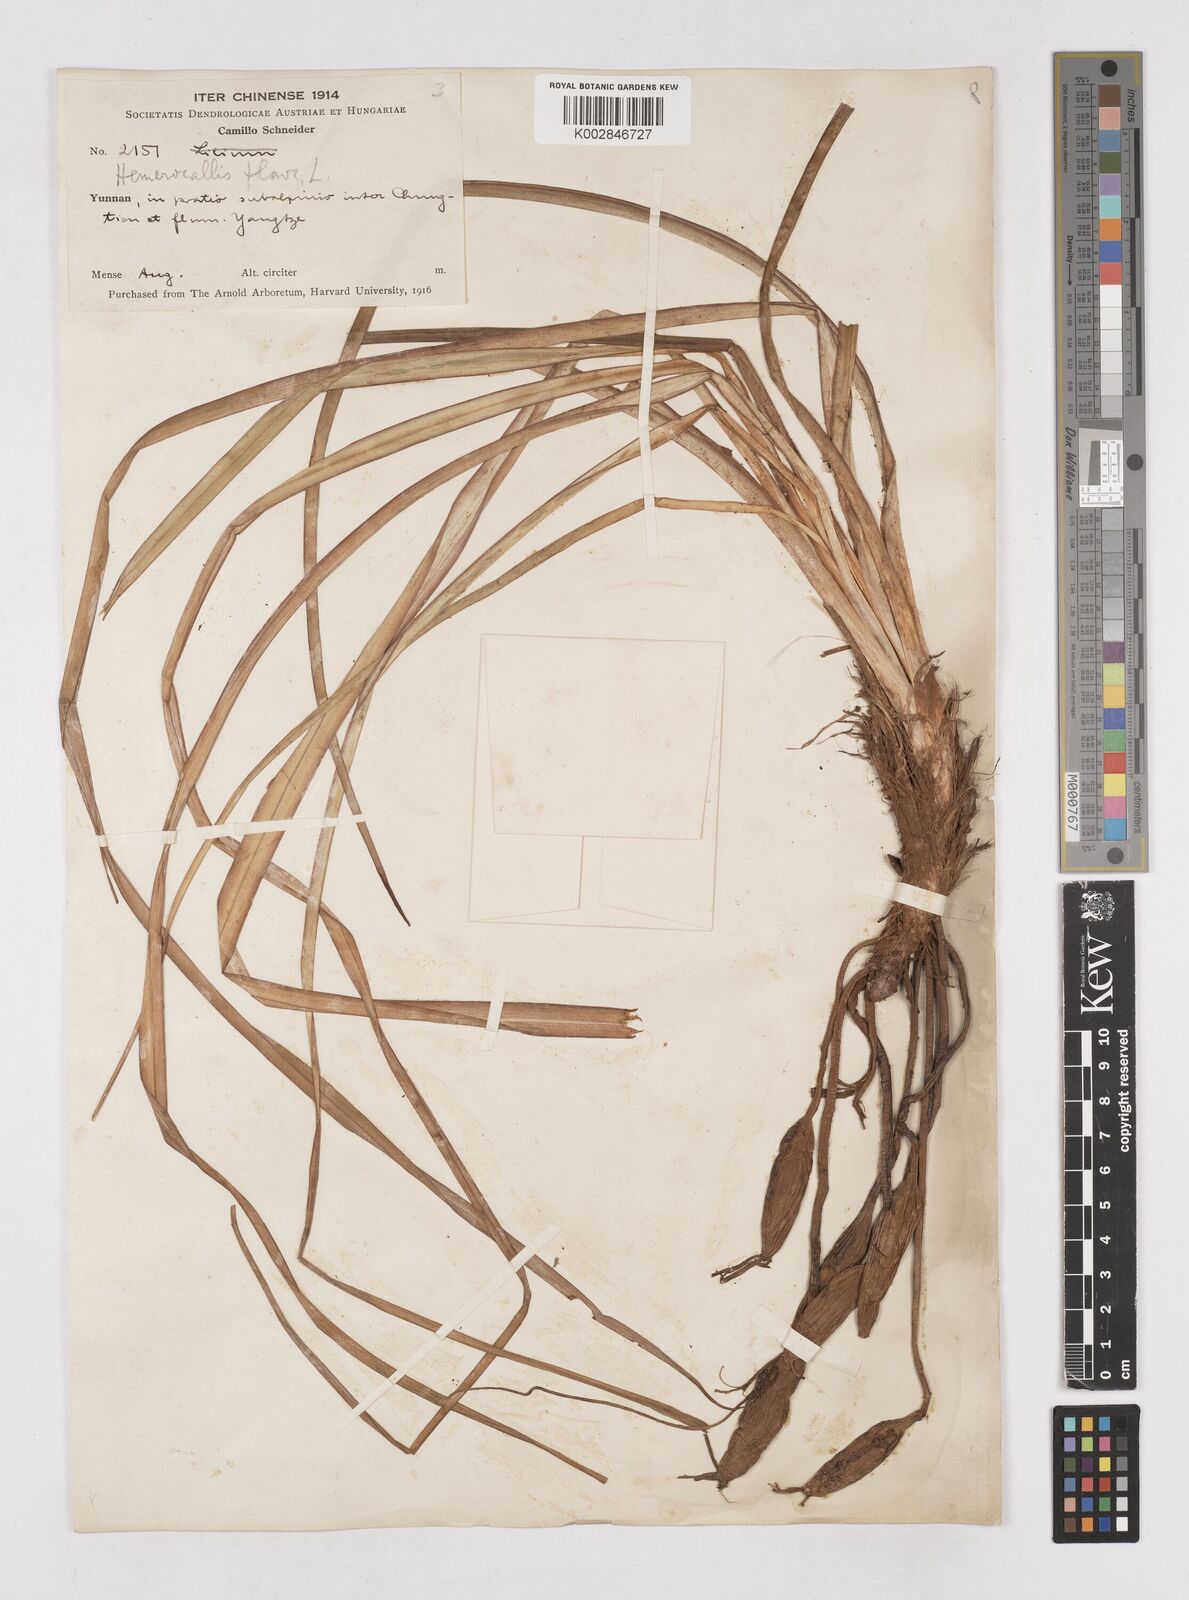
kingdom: Plantae
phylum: Tracheophyta
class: Liliopsida
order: Asparagales
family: Asphodelaceae
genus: Hemerocallis
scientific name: Hemerocallis
